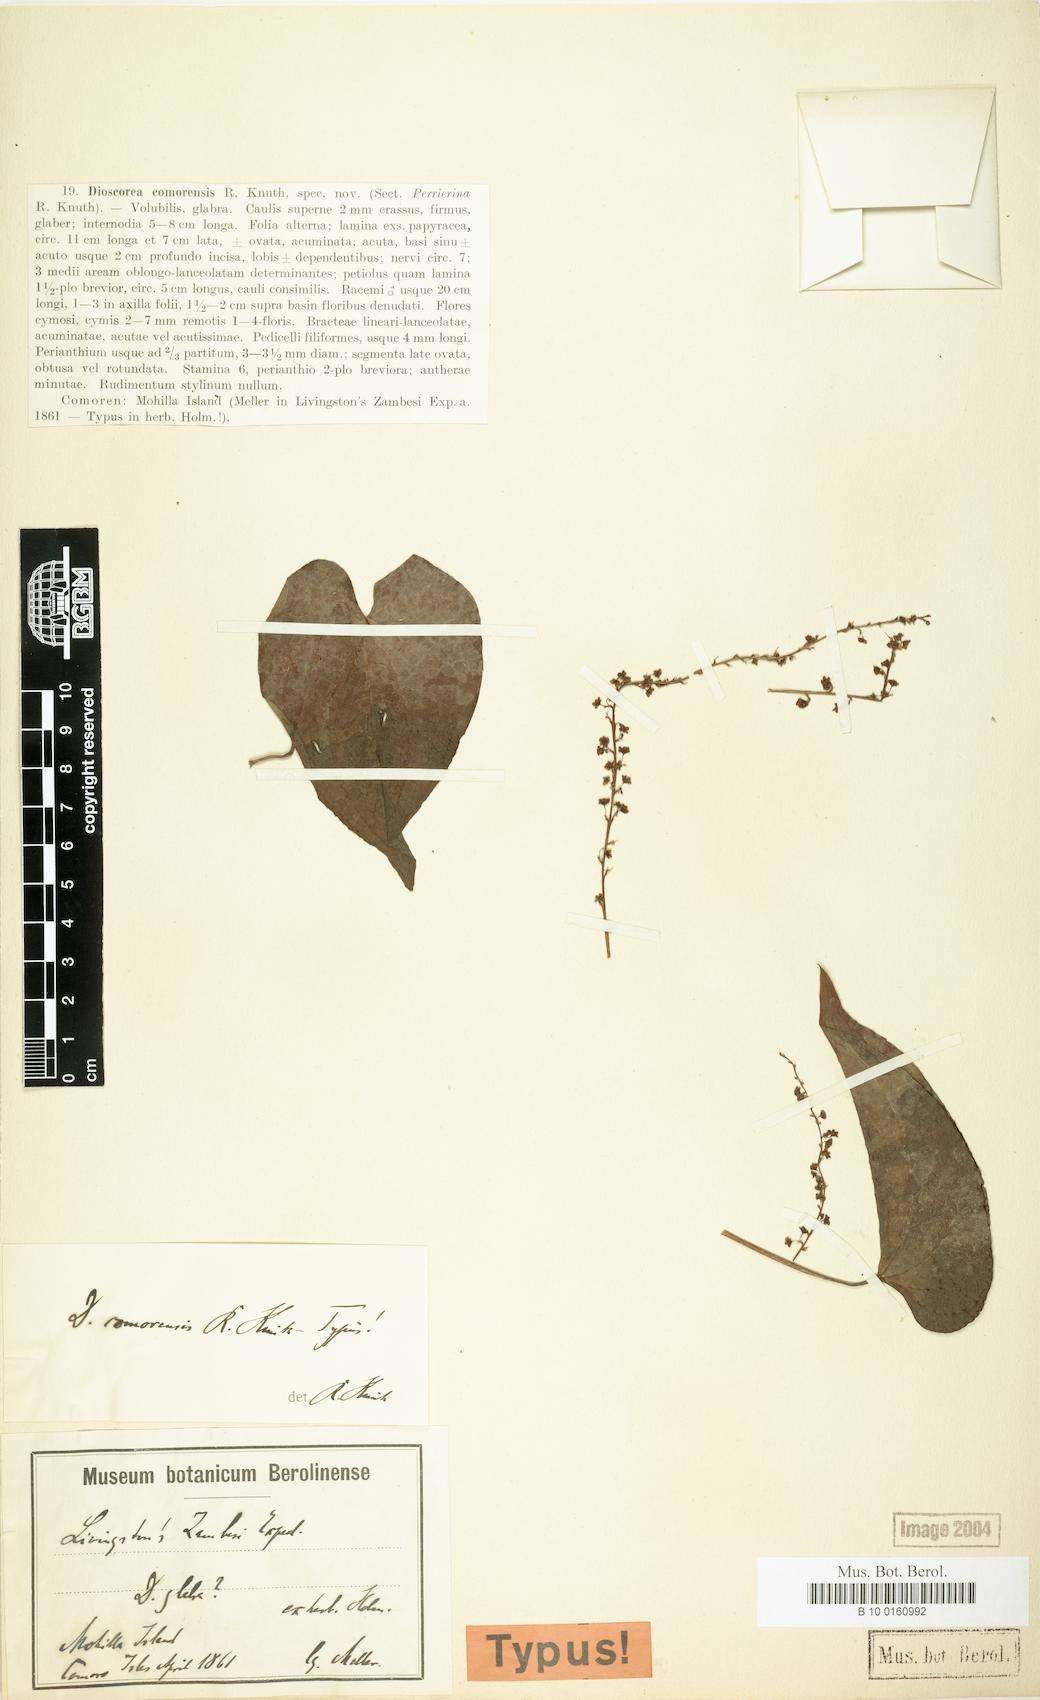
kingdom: Plantae
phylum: Tracheophyta
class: Liliopsida
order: Dioscoreales
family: Dioscoreaceae
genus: Dioscorea
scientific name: Dioscorea comorensis
